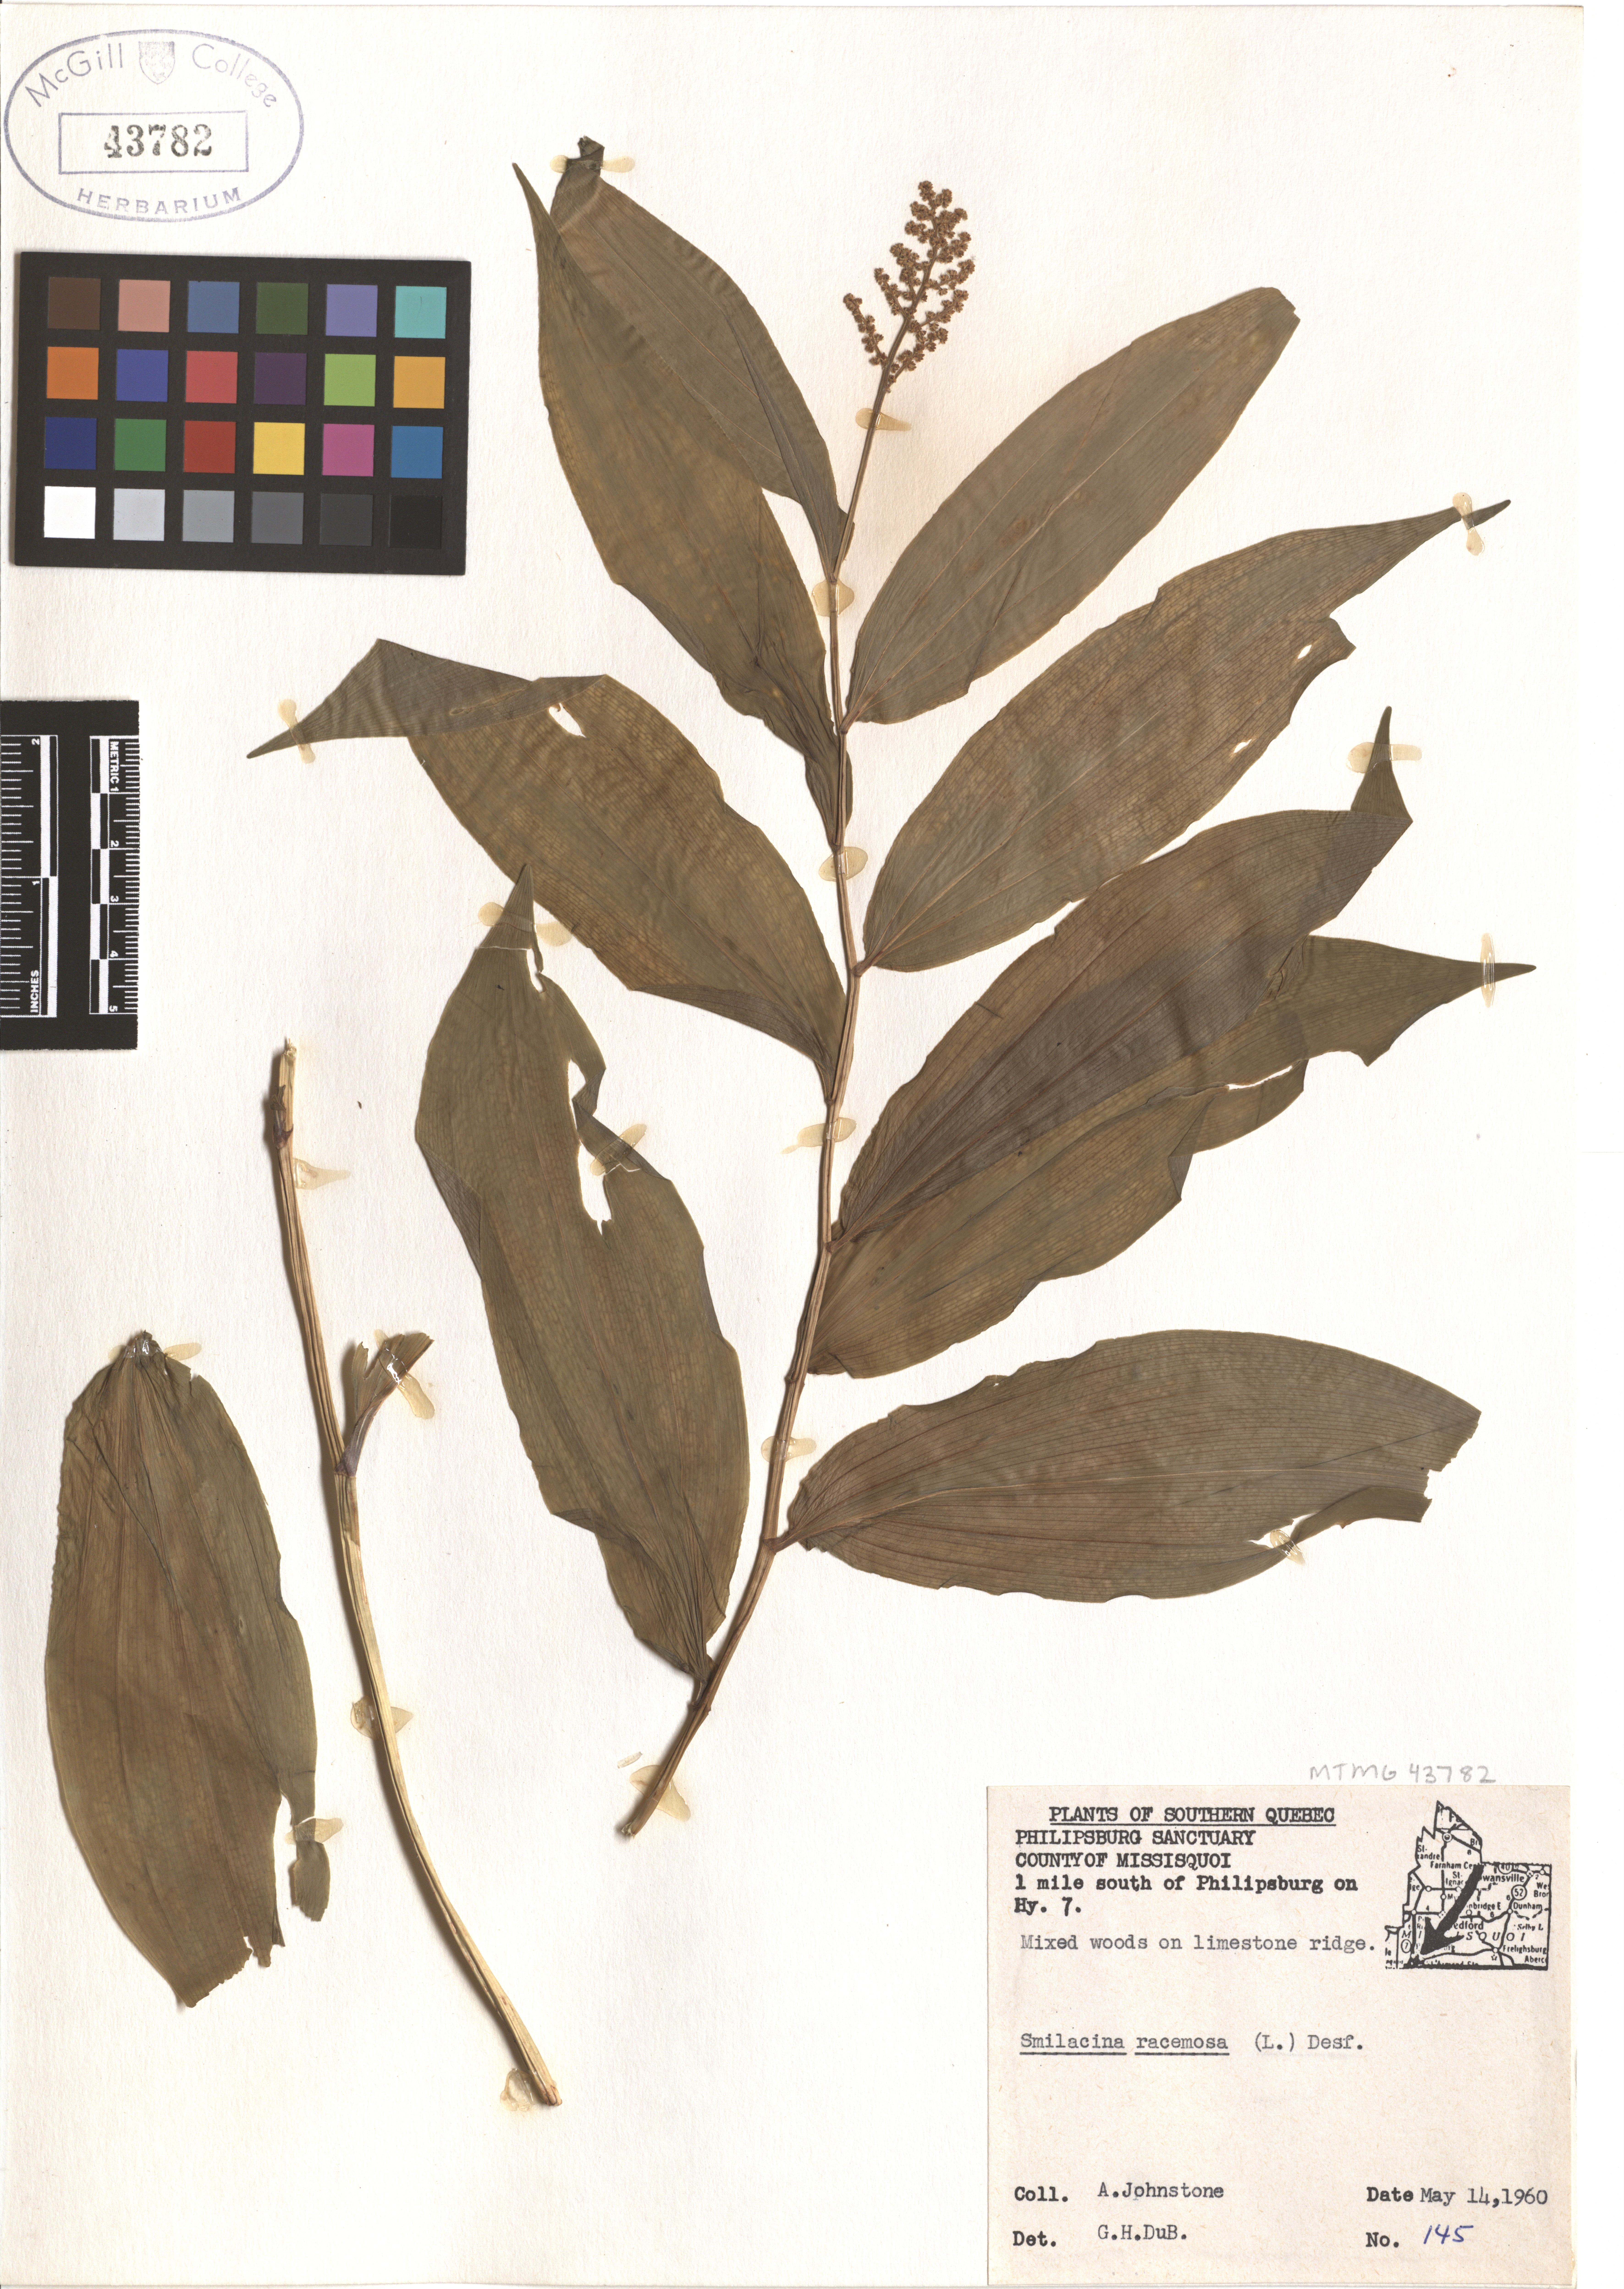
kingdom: Plantae
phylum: Tracheophyta
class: Liliopsida
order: Asparagales
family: Asparagaceae
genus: Maianthemum
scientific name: Maianthemum racemosum
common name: False spikenard
